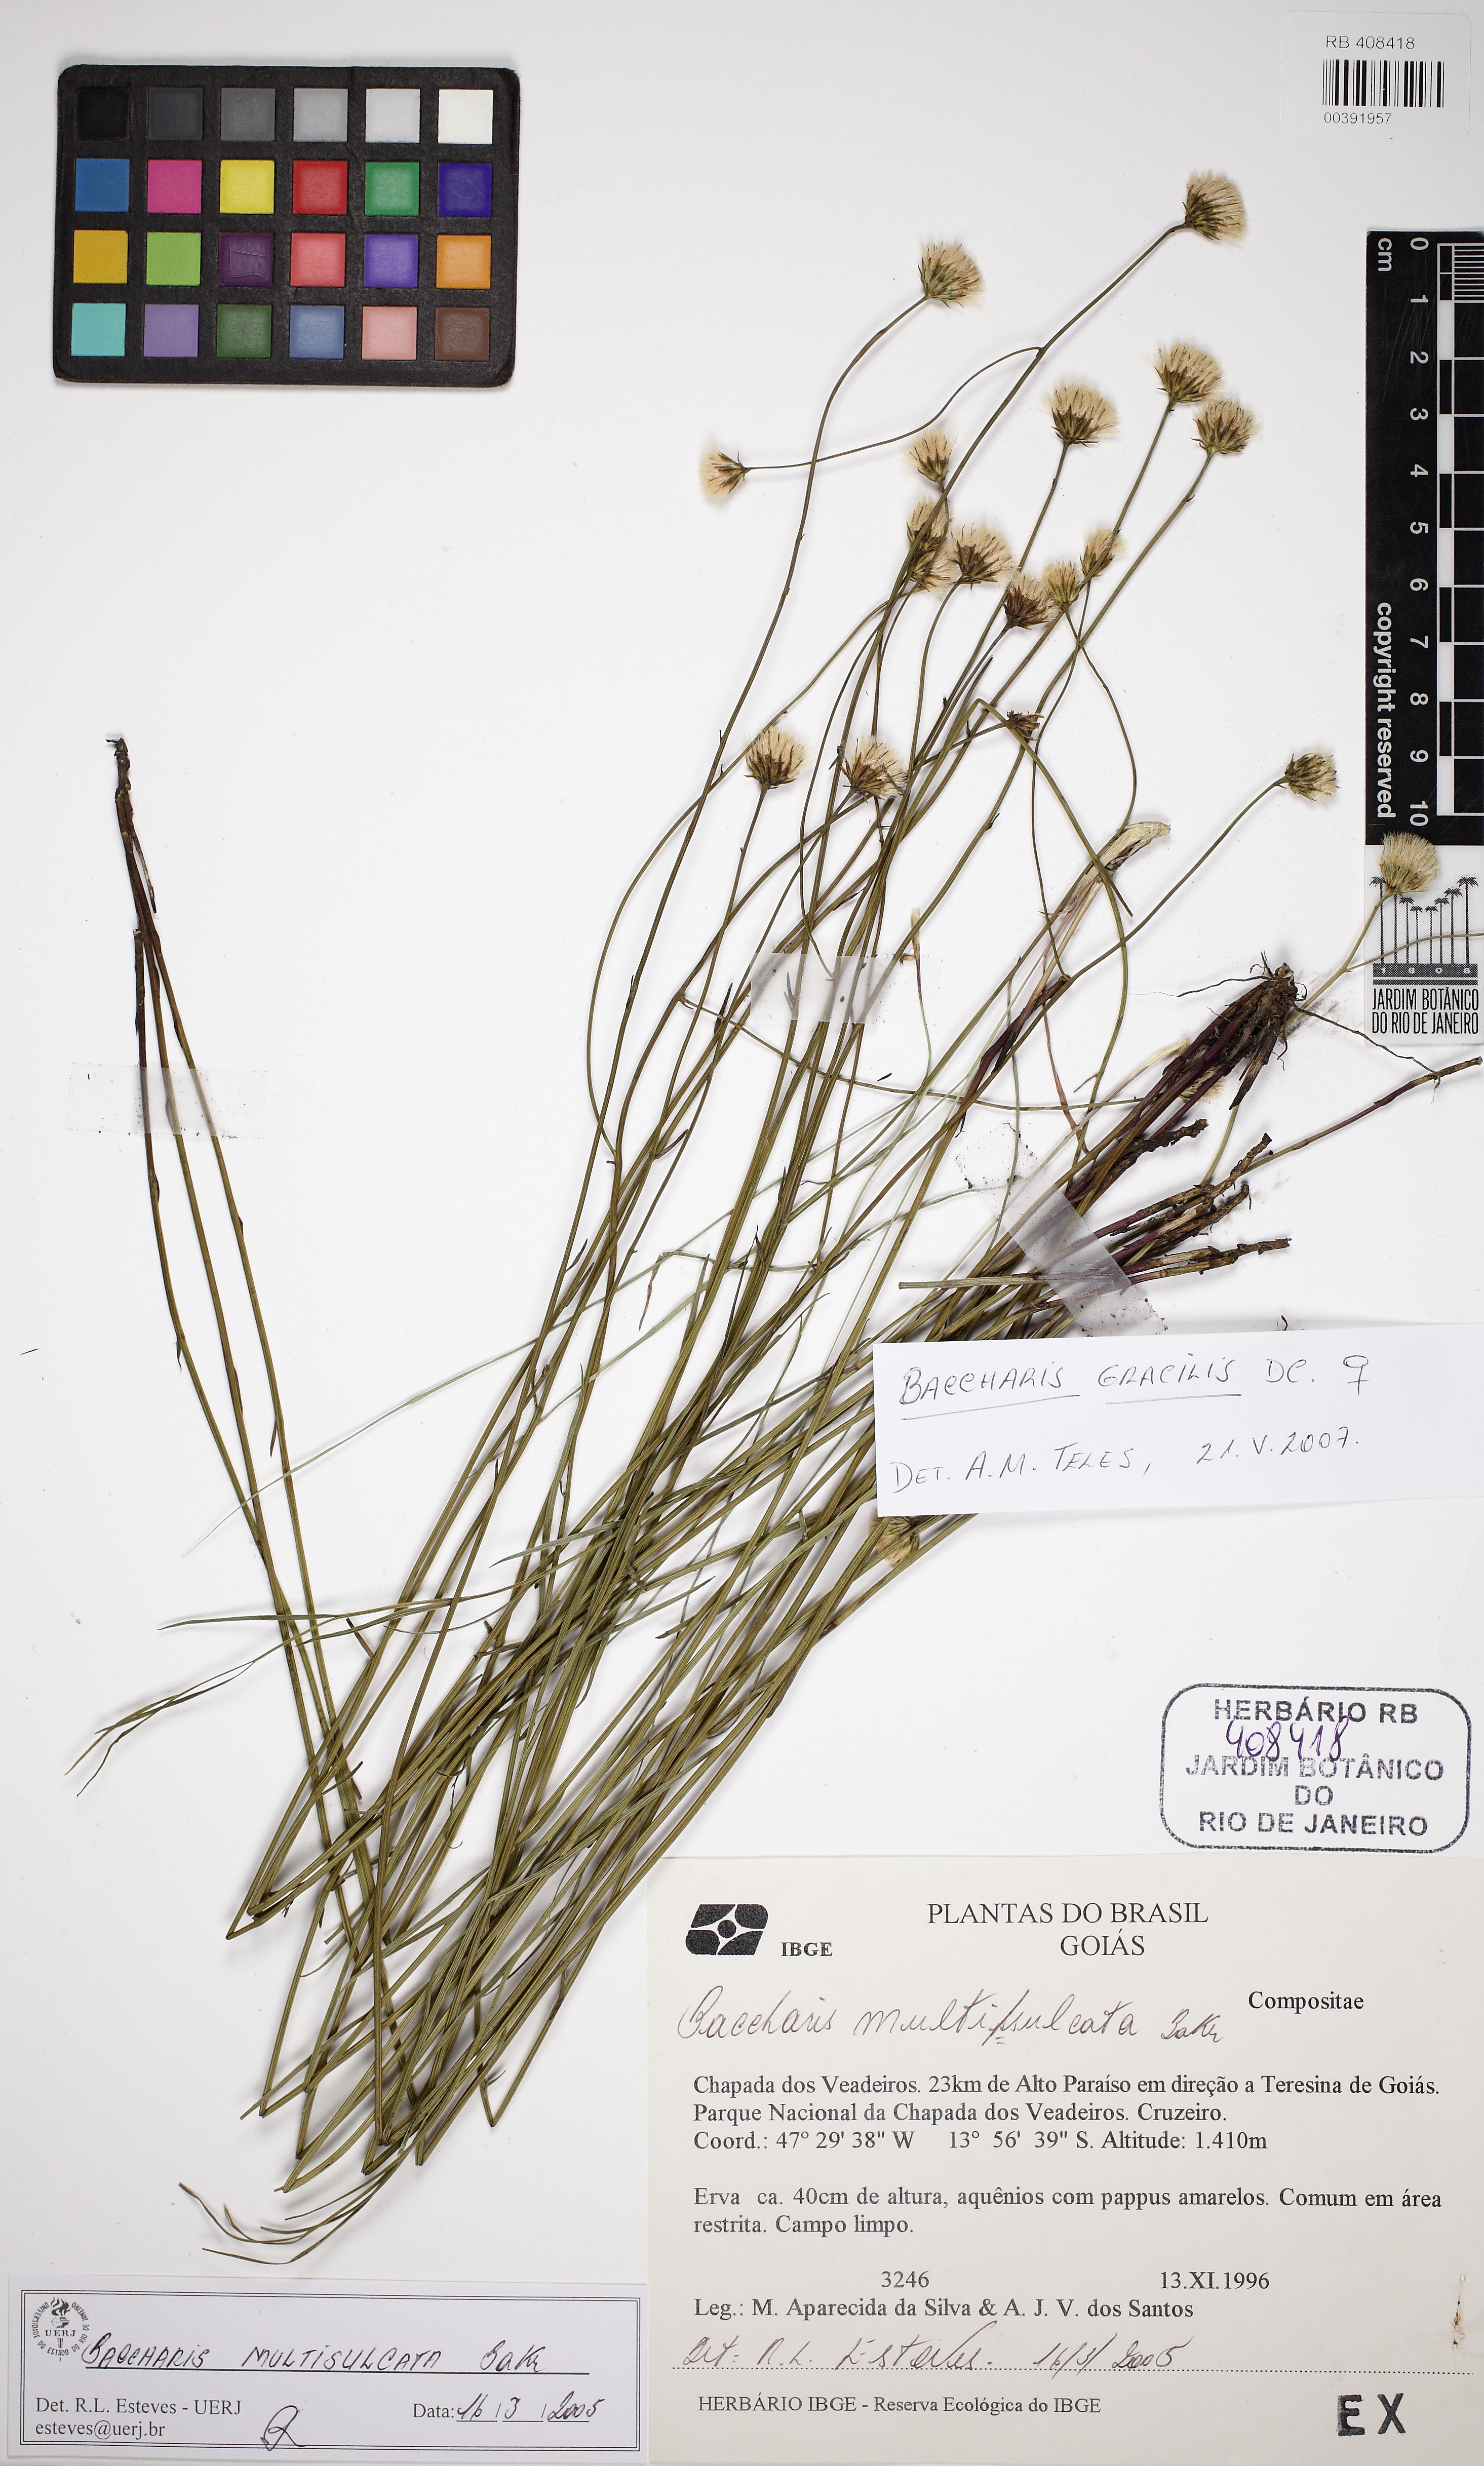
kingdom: Plantae
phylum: Tracheophyta
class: Magnoliopsida
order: Asterales
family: Asteraceae
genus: Baccharis
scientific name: Baccharis gracilis
